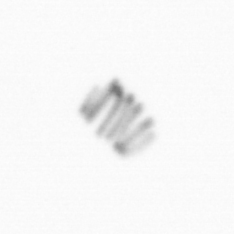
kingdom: Chromista
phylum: Ochrophyta
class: Bacillariophyceae
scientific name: Bacillariophyceae
